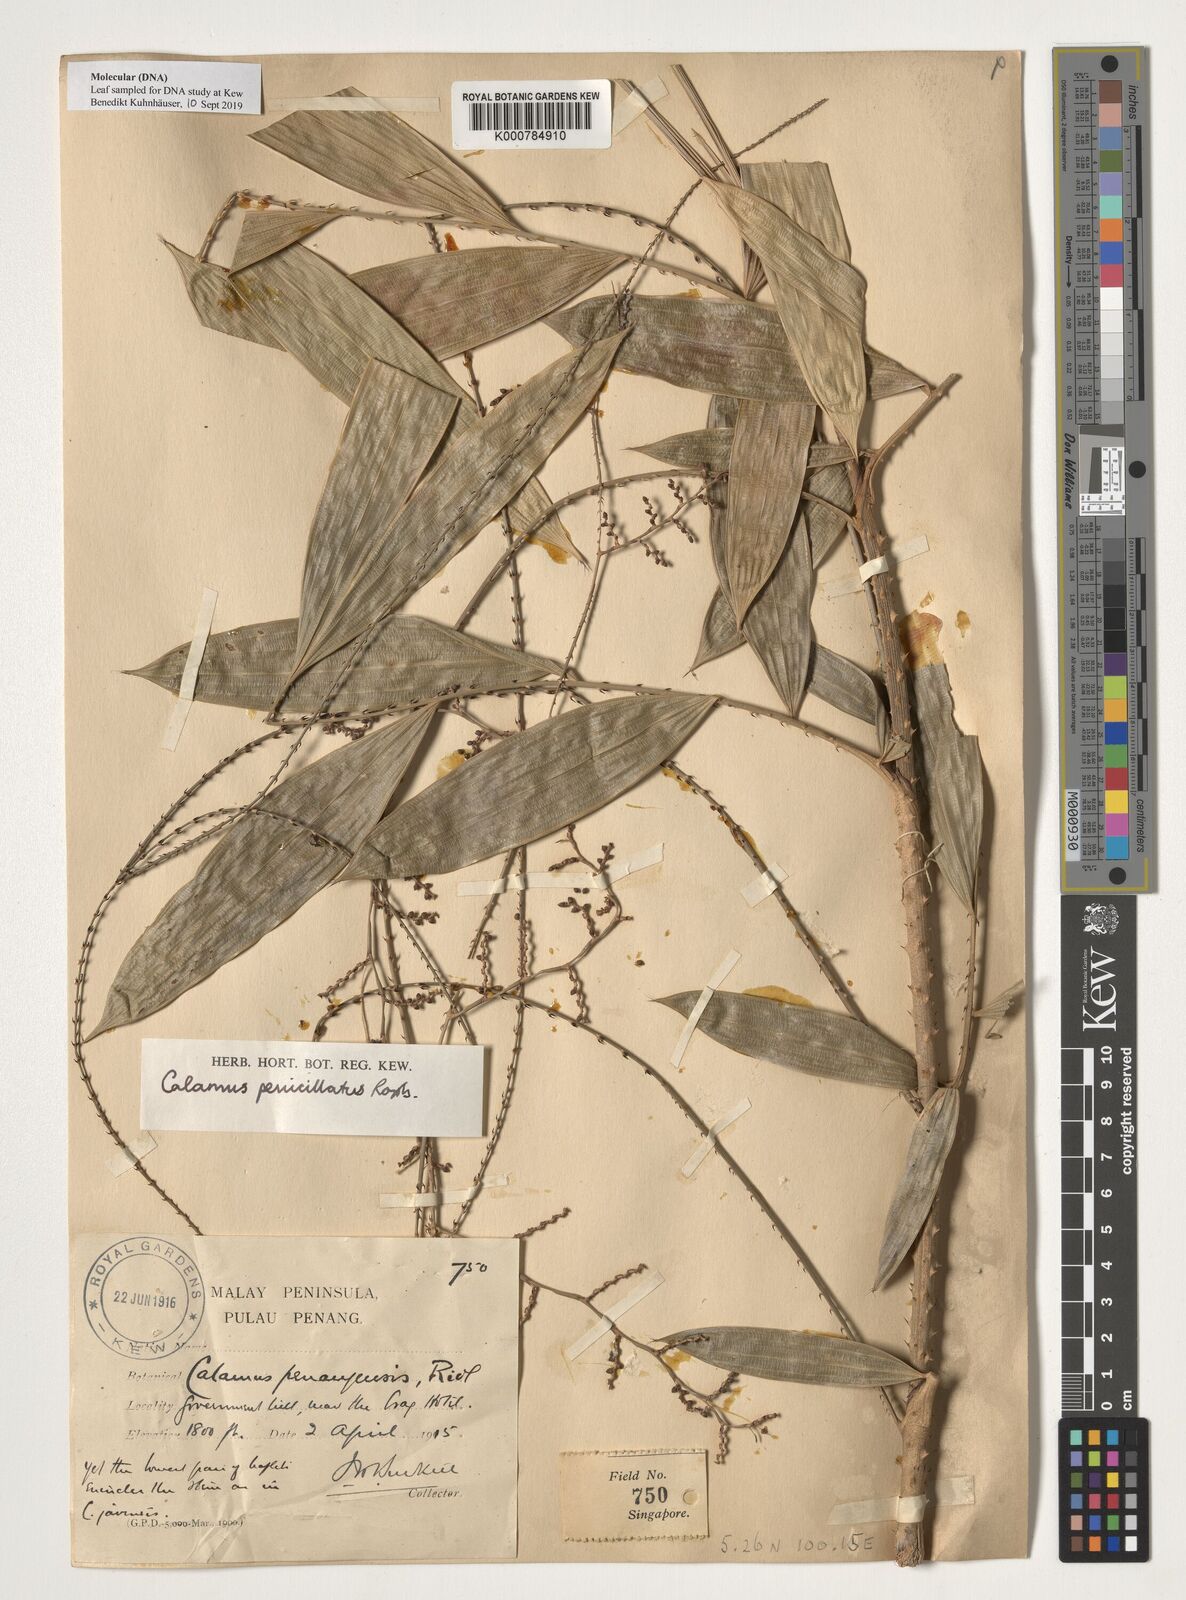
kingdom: Plantae
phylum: Tracheophyta
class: Liliopsida
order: Arecales
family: Arecaceae
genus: Calamus
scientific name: Calamus penicillatus
